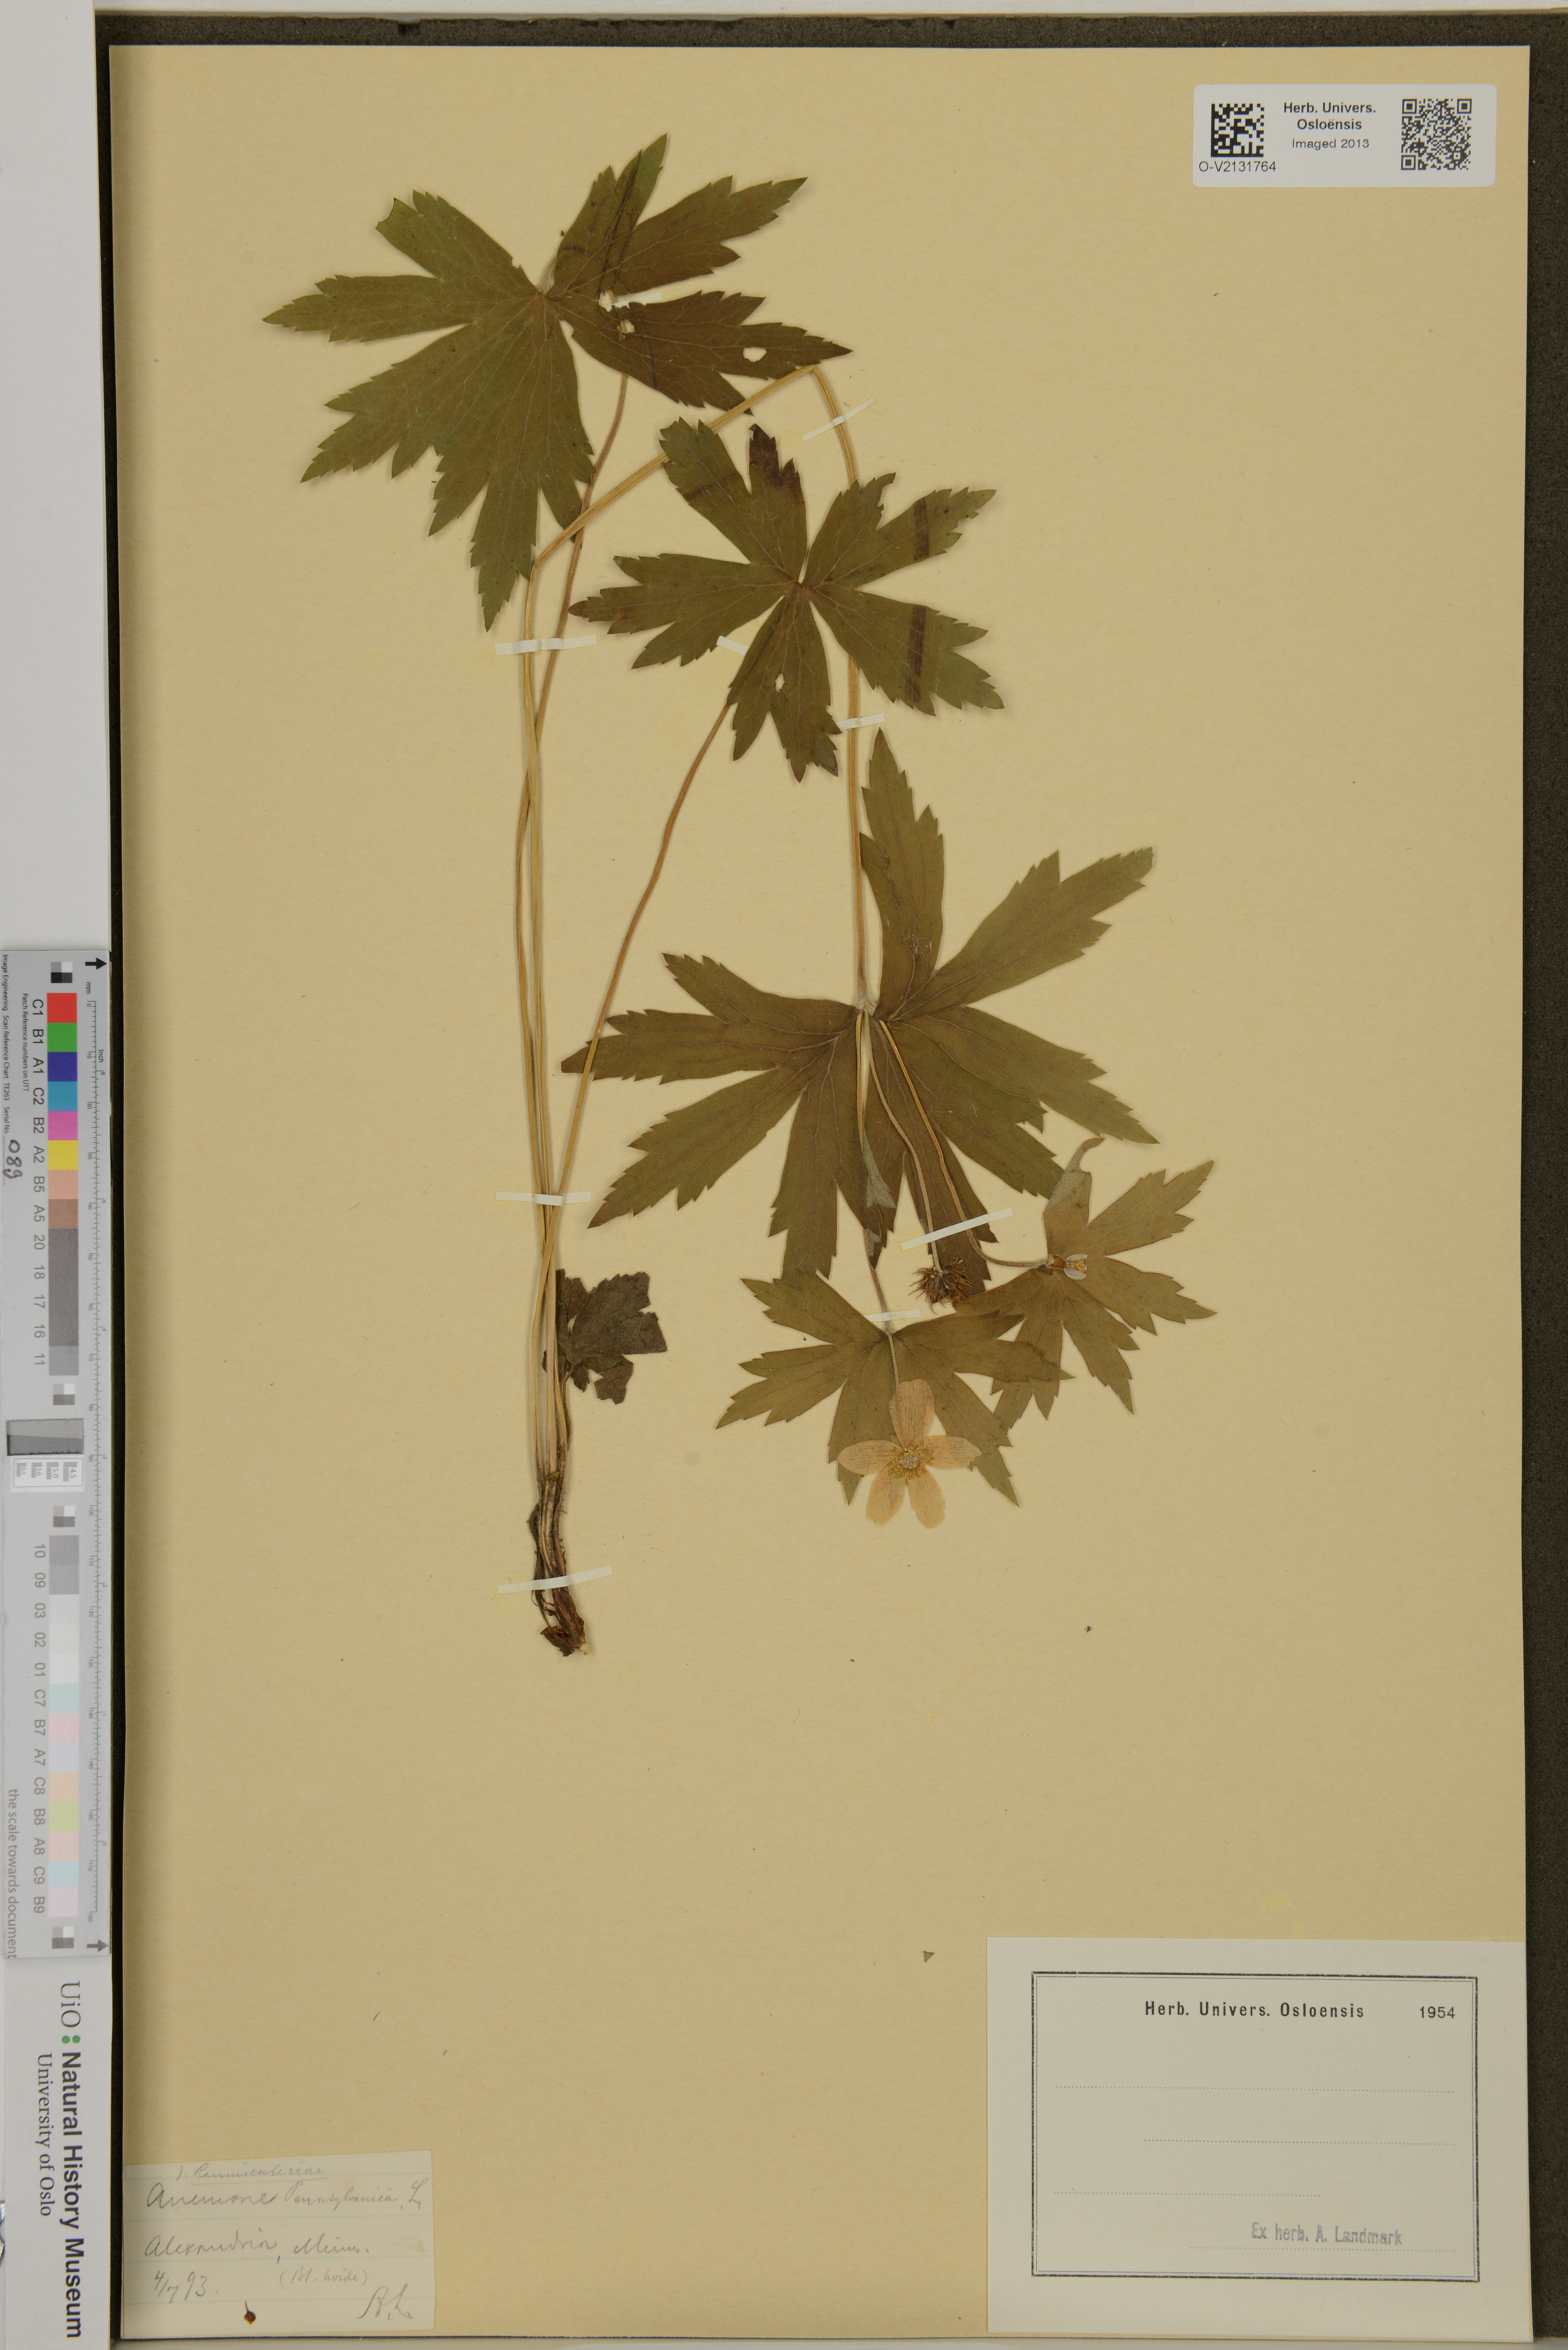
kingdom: Plantae
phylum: Tracheophyta
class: Magnoliopsida
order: Ranunculales
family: Ranunculaceae
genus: Anemonastrum
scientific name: Anemonastrum dichotomum
